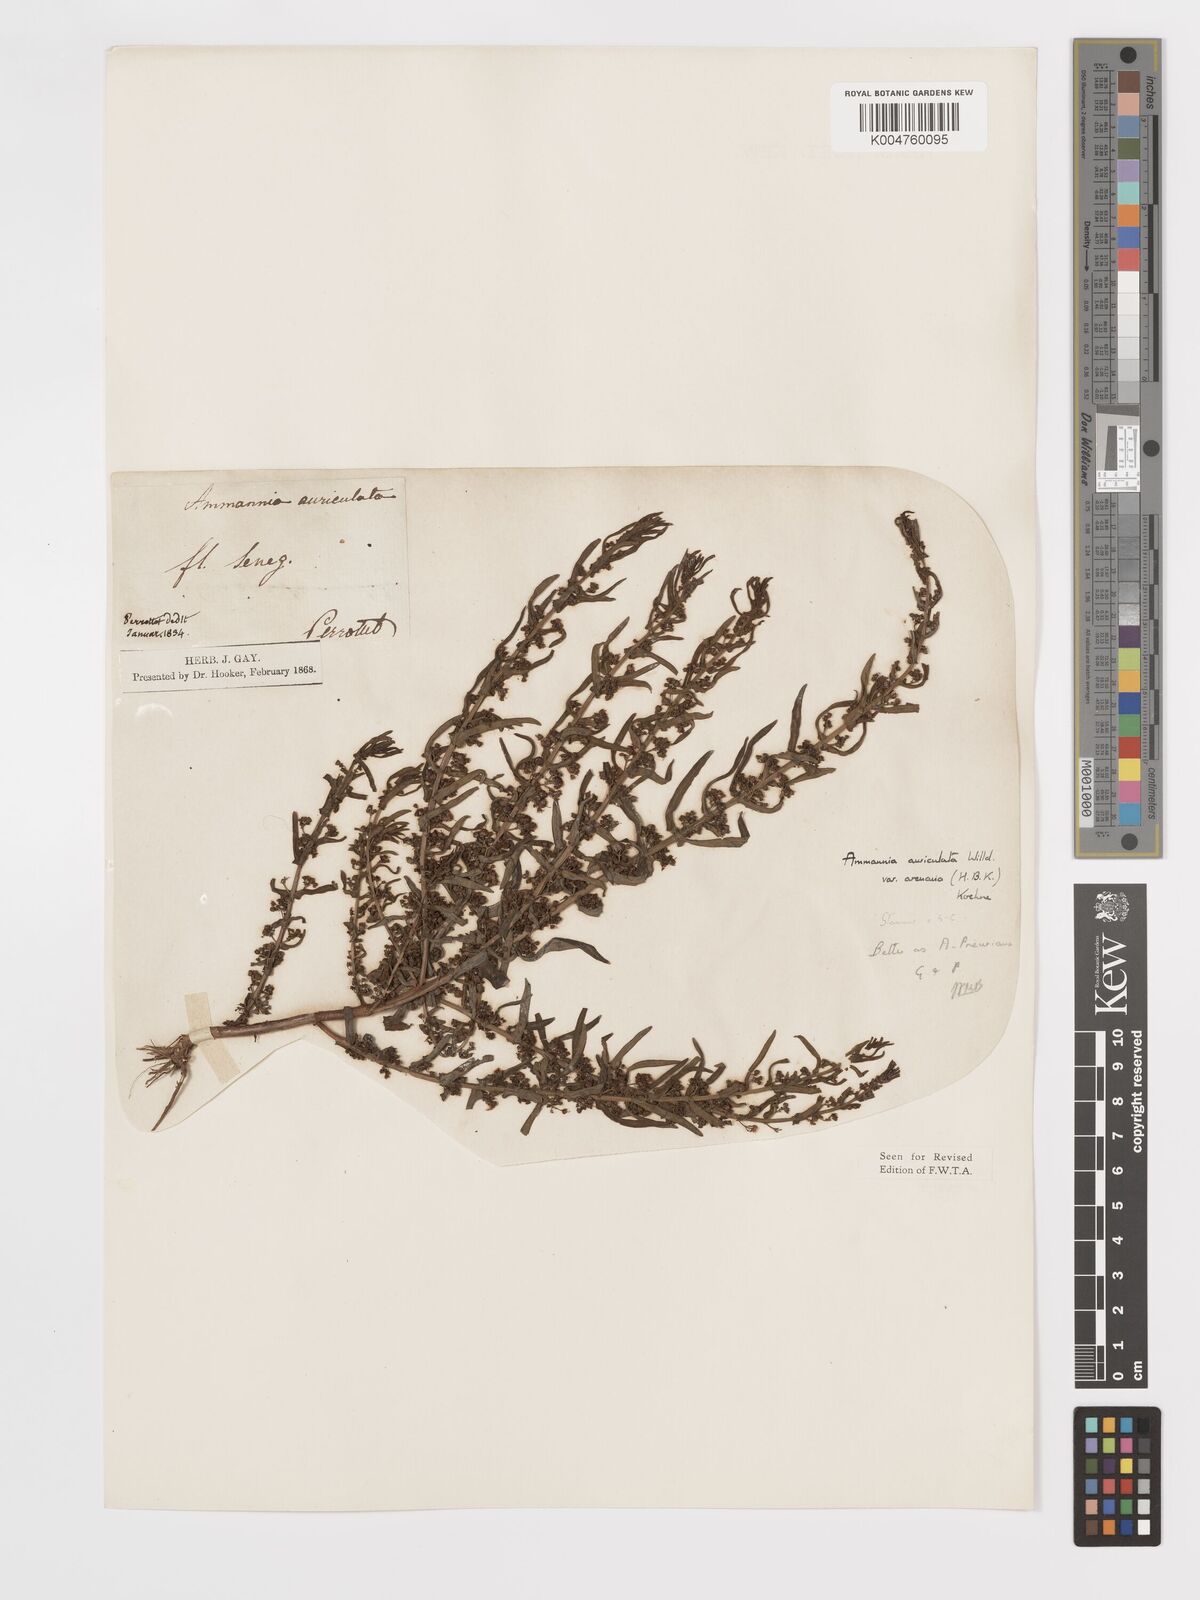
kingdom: Plantae
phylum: Tracheophyta
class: Magnoliopsida
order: Myrtales
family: Lythraceae
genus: Ammannia
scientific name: Ammannia prieuriana
